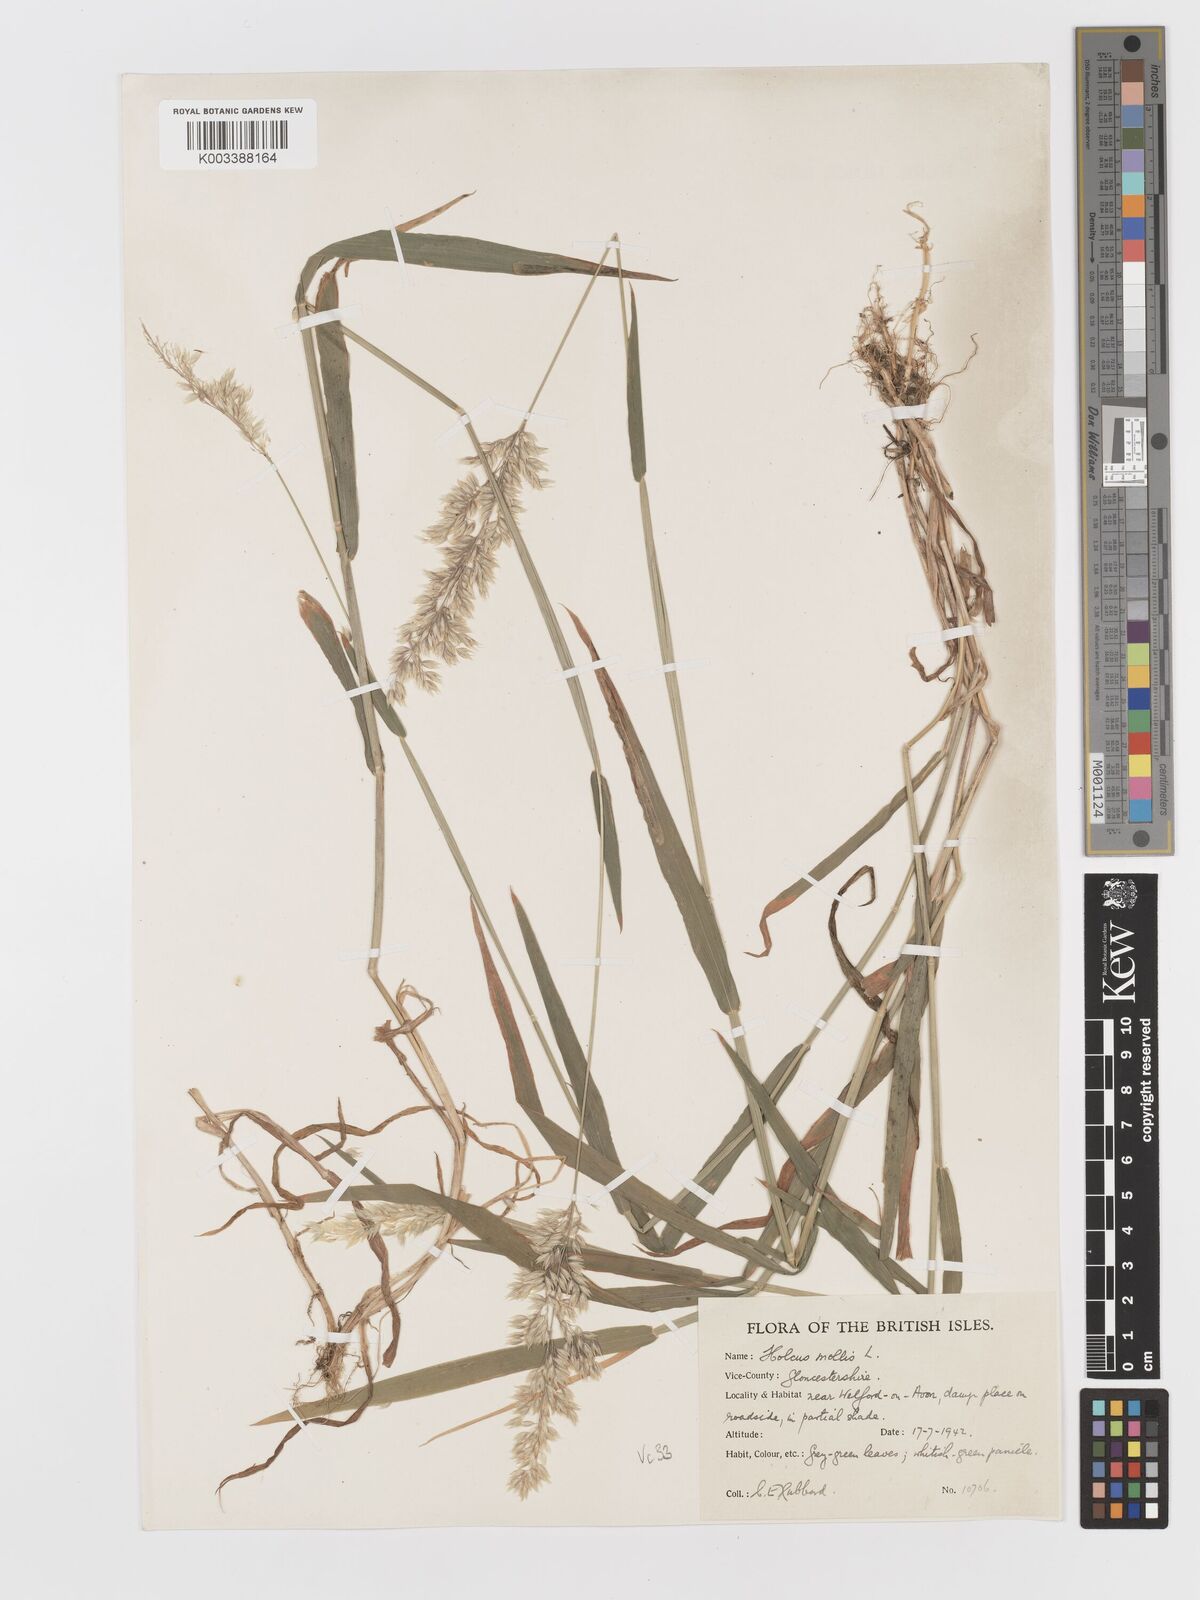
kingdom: Plantae
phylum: Tracheophyta
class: Liliopsida
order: Poales
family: Poaceae
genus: Holcus
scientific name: Holcus mollis
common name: Creeping velvetgrass
